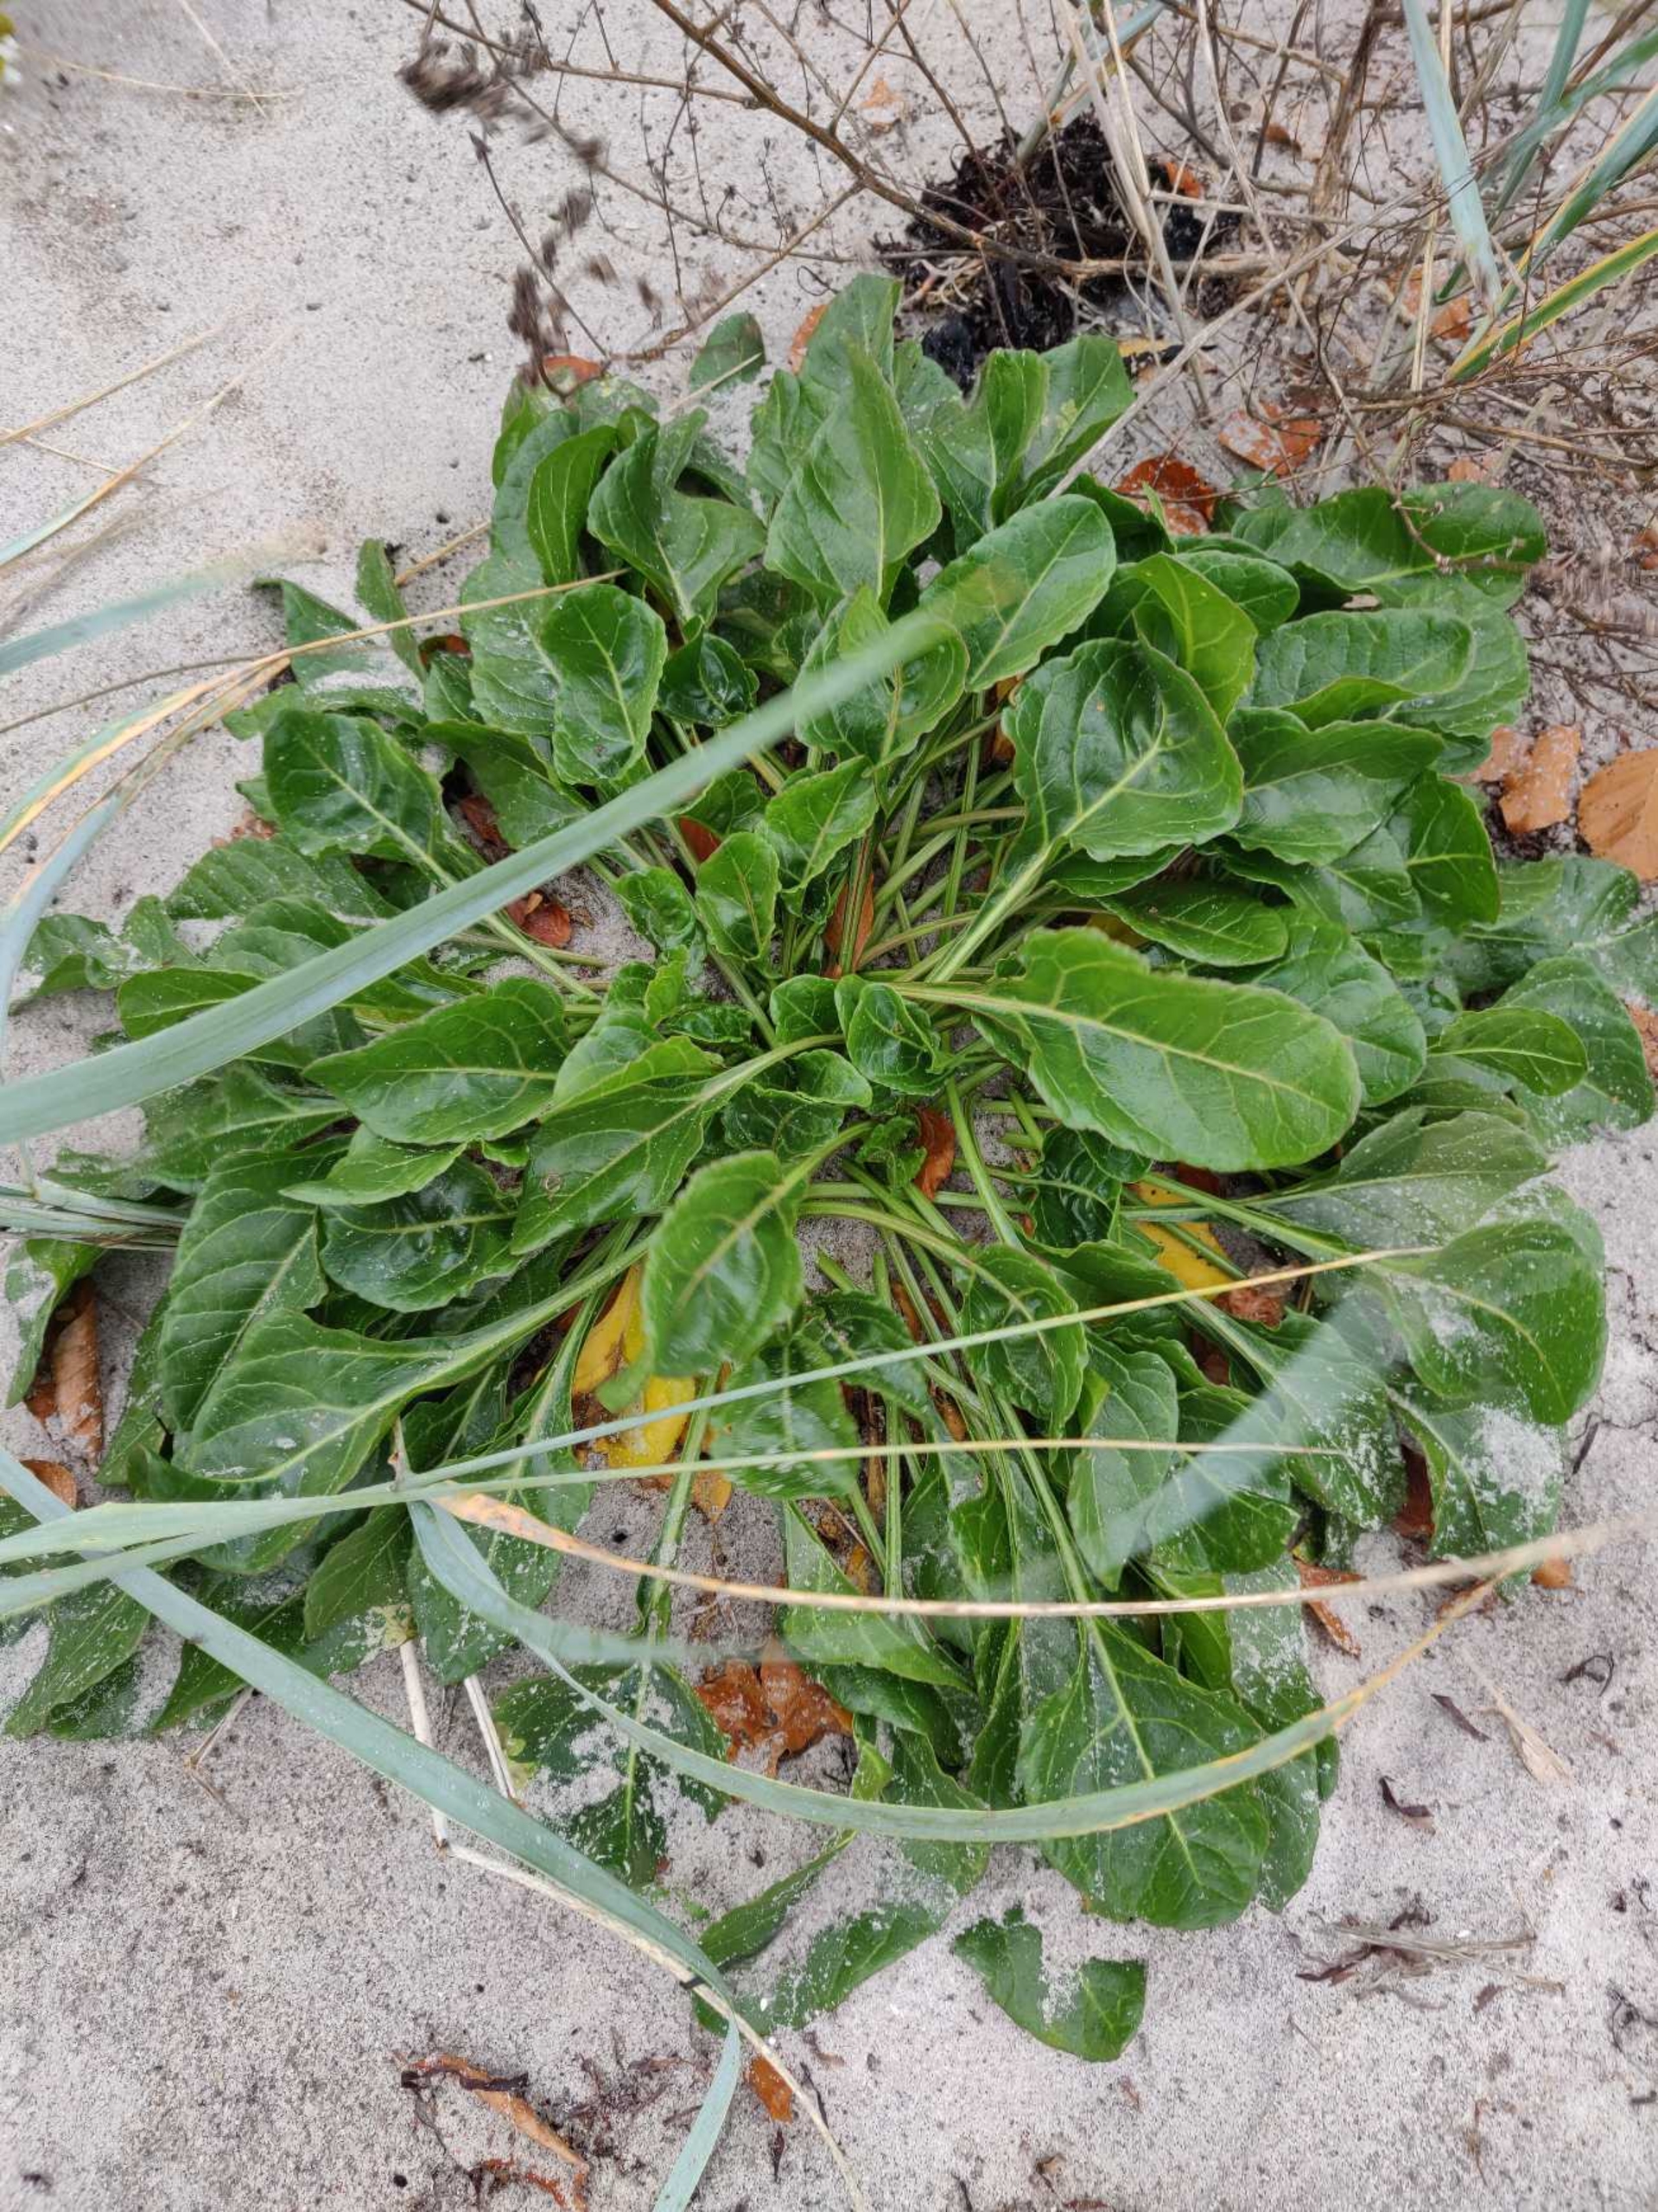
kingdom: Plantae
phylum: Tracheophyta
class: Magnoliopsida
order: Caryophyllales
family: Amaranthaceae
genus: Beta
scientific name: Beta maritima
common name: Strand-bede
